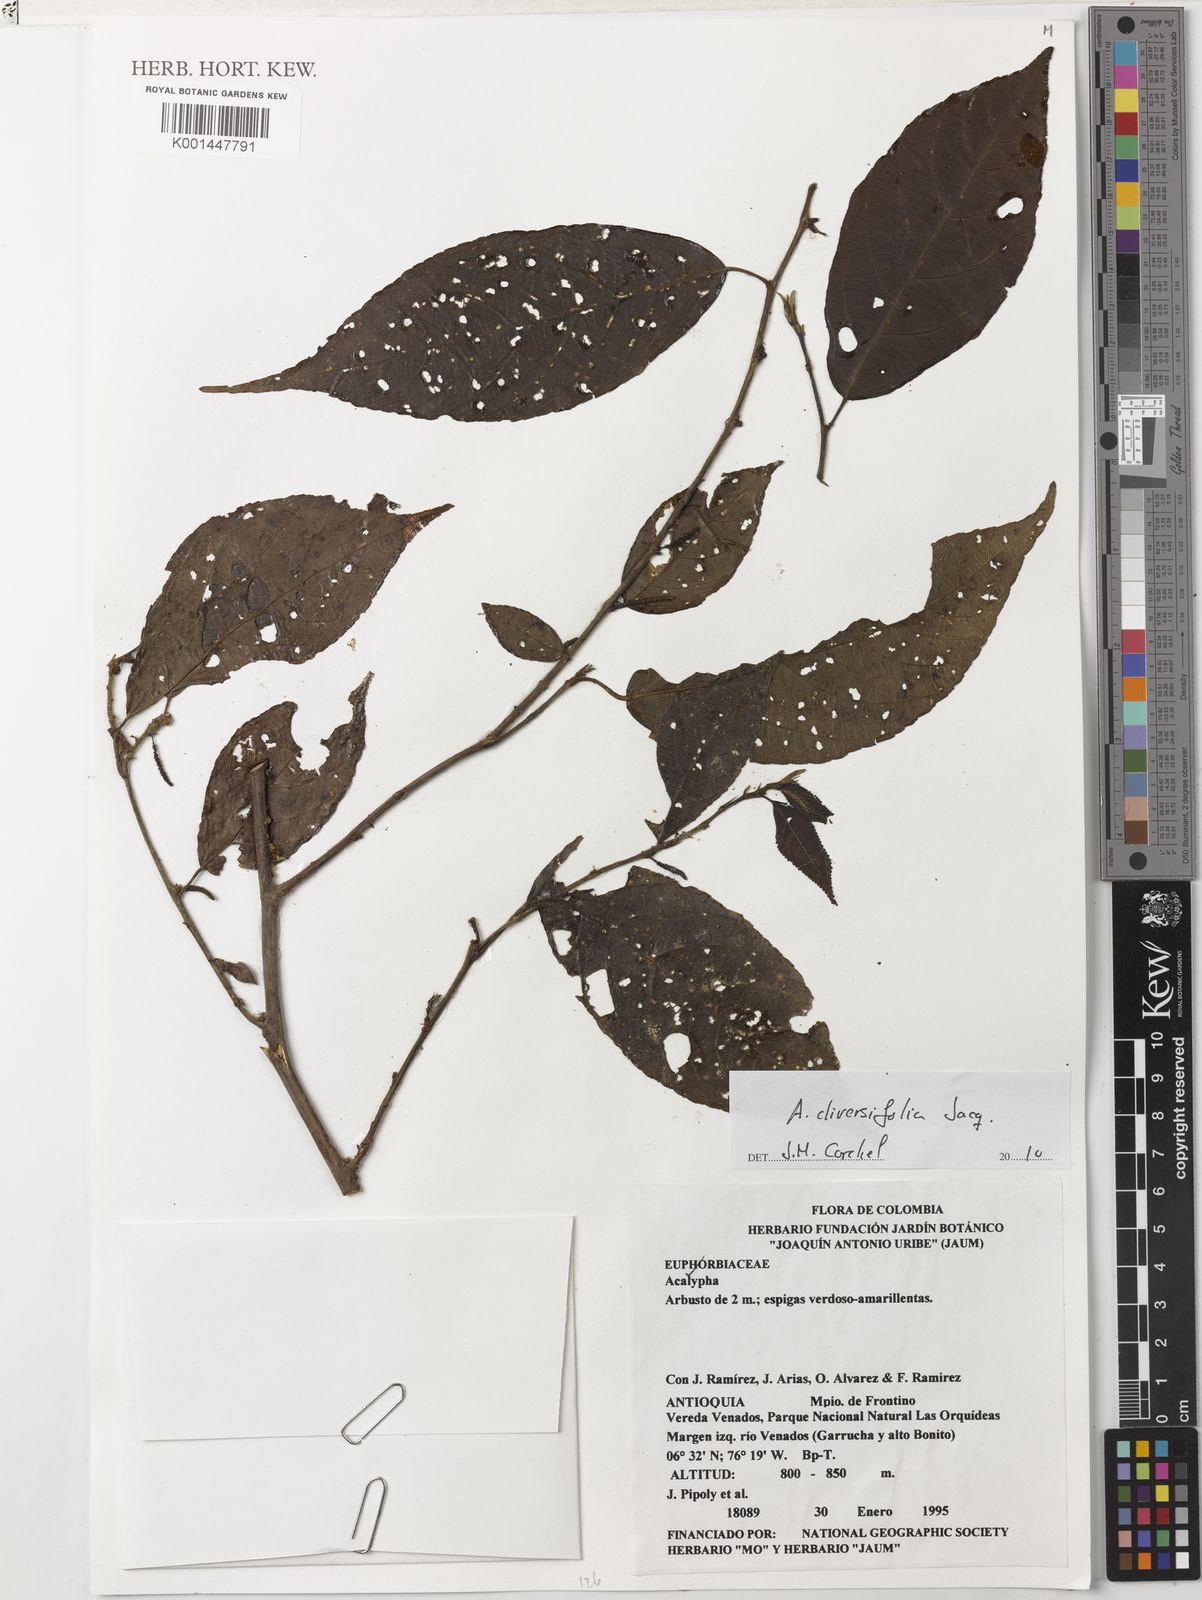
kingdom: Plantae
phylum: Tracheophyta
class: Magnoliopsida
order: Malpighiales
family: Euphorbiaceae
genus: Acalypha
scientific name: Acalypha diversifolia
